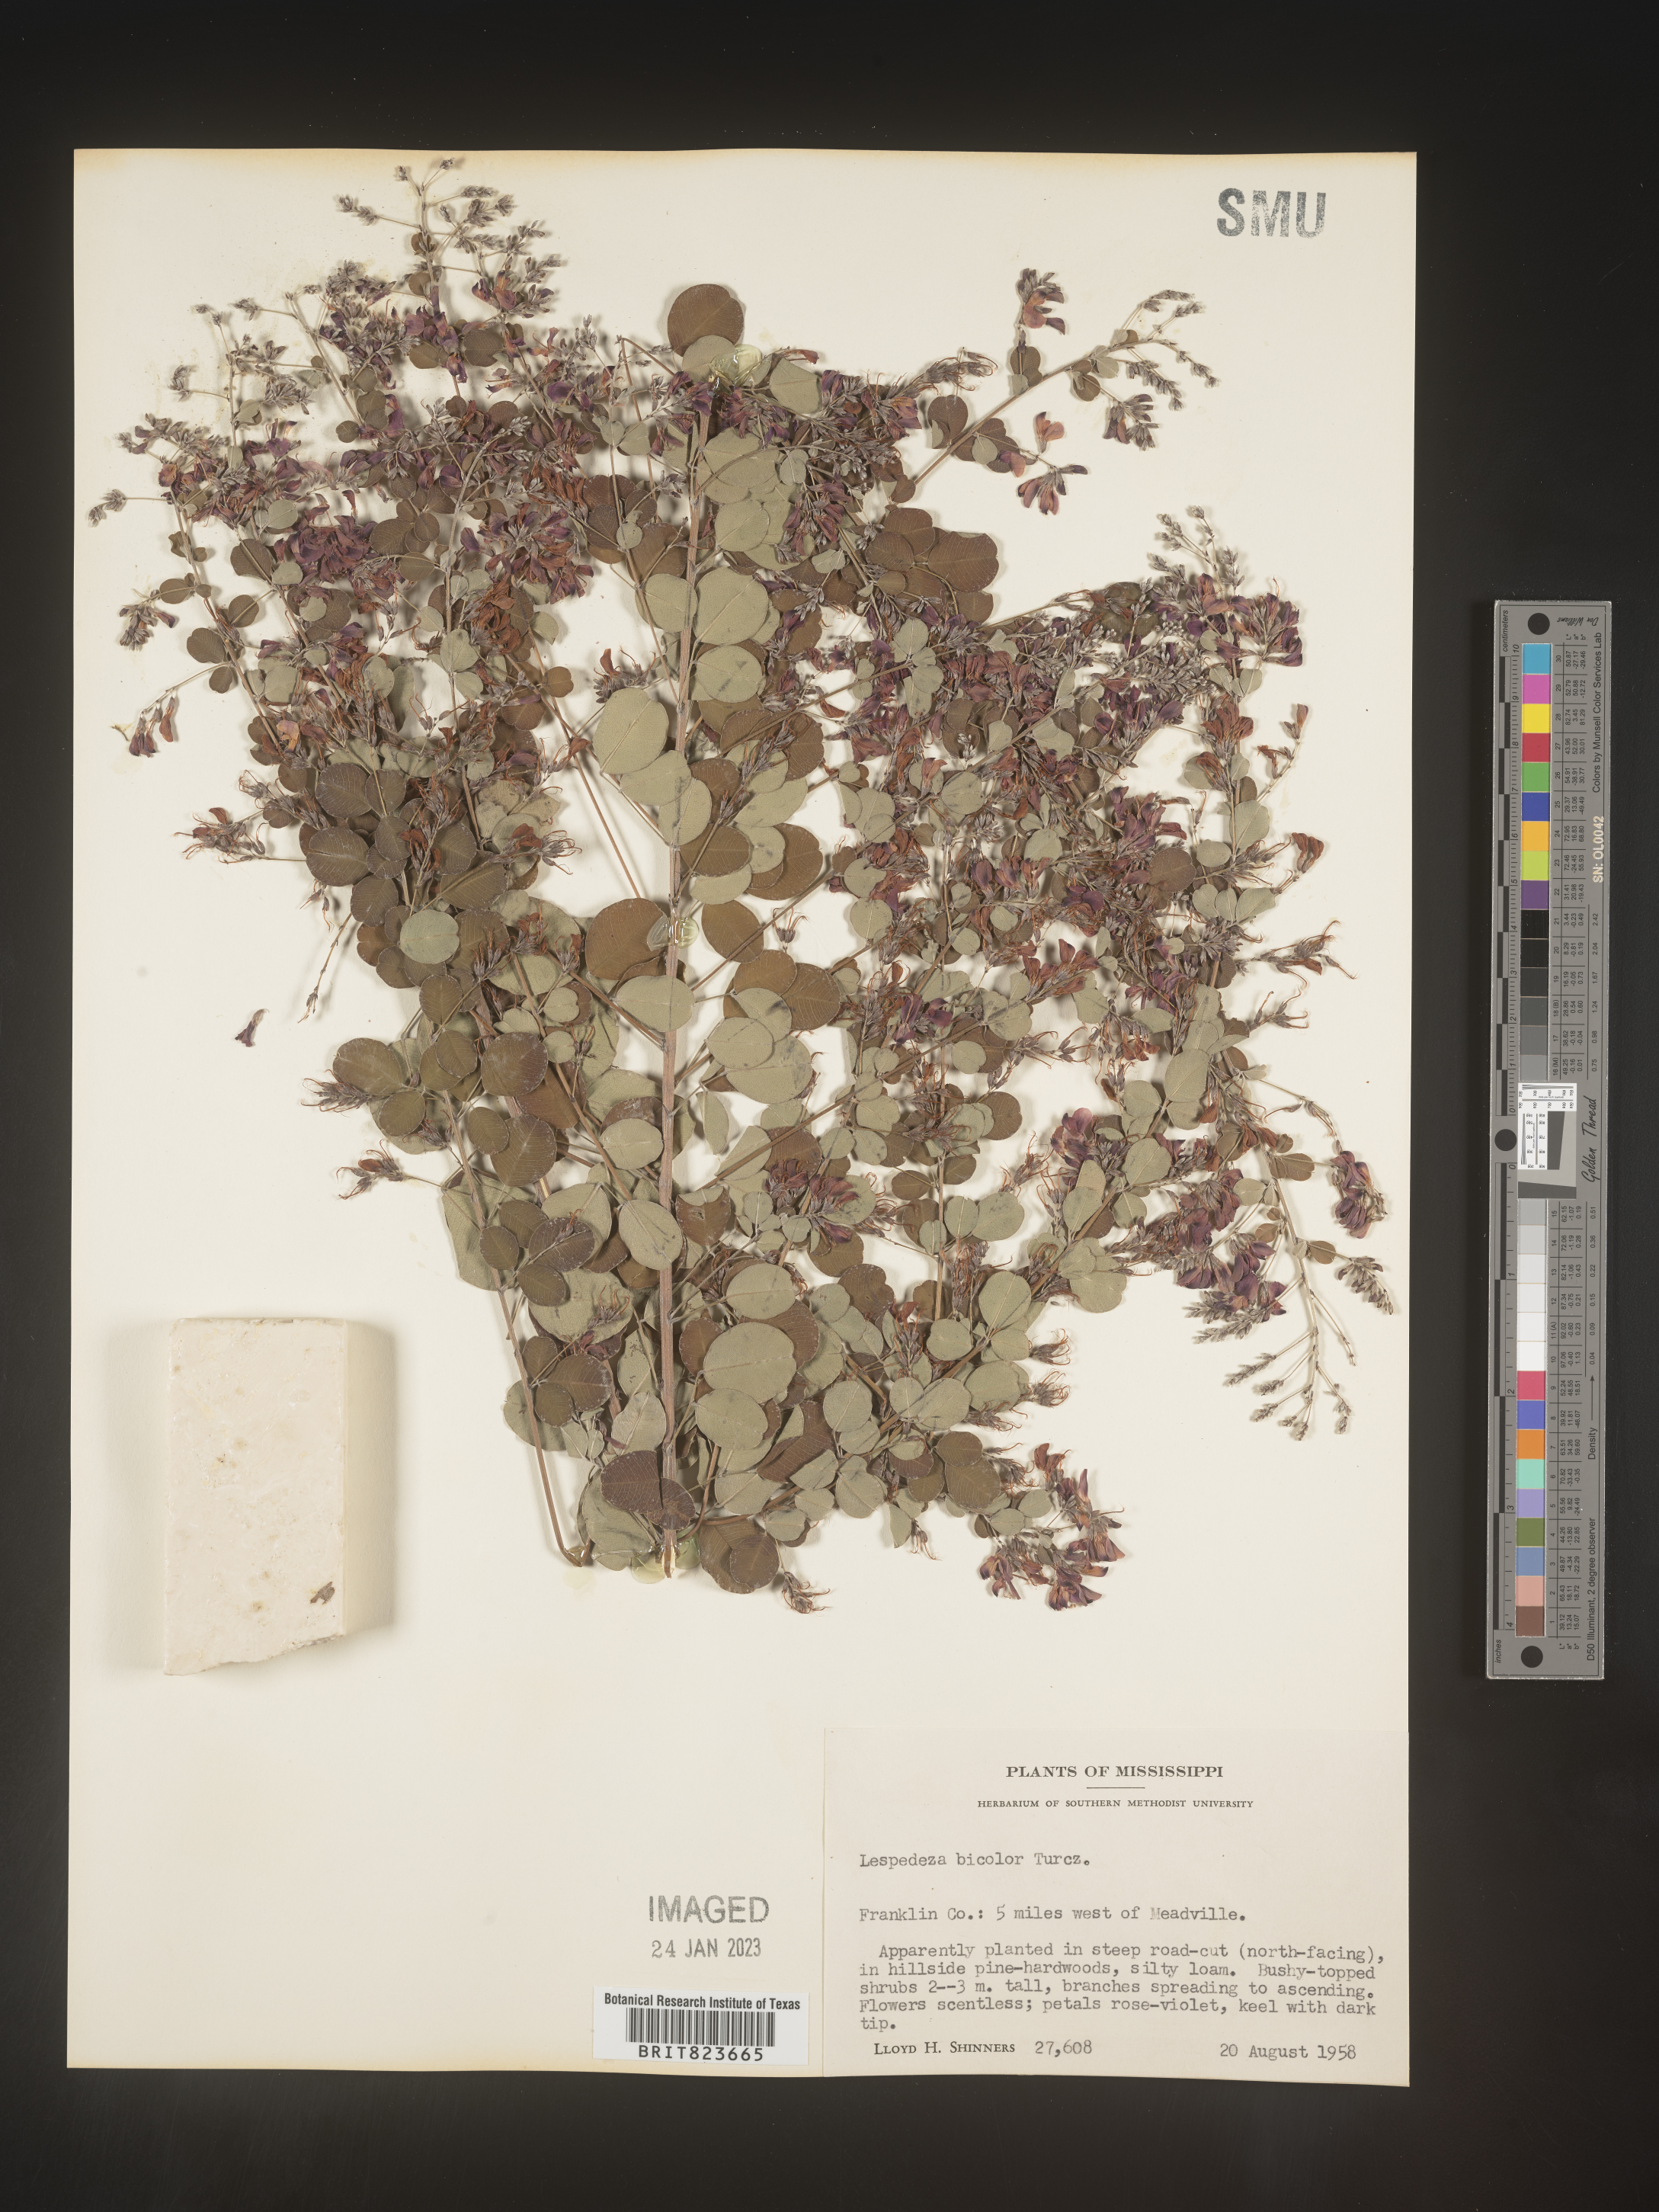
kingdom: Plantae
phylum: Tracheophyta
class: Magnoliopsida
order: Fabales
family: Fabaceae
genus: Lespedeza
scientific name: Lespedeza
